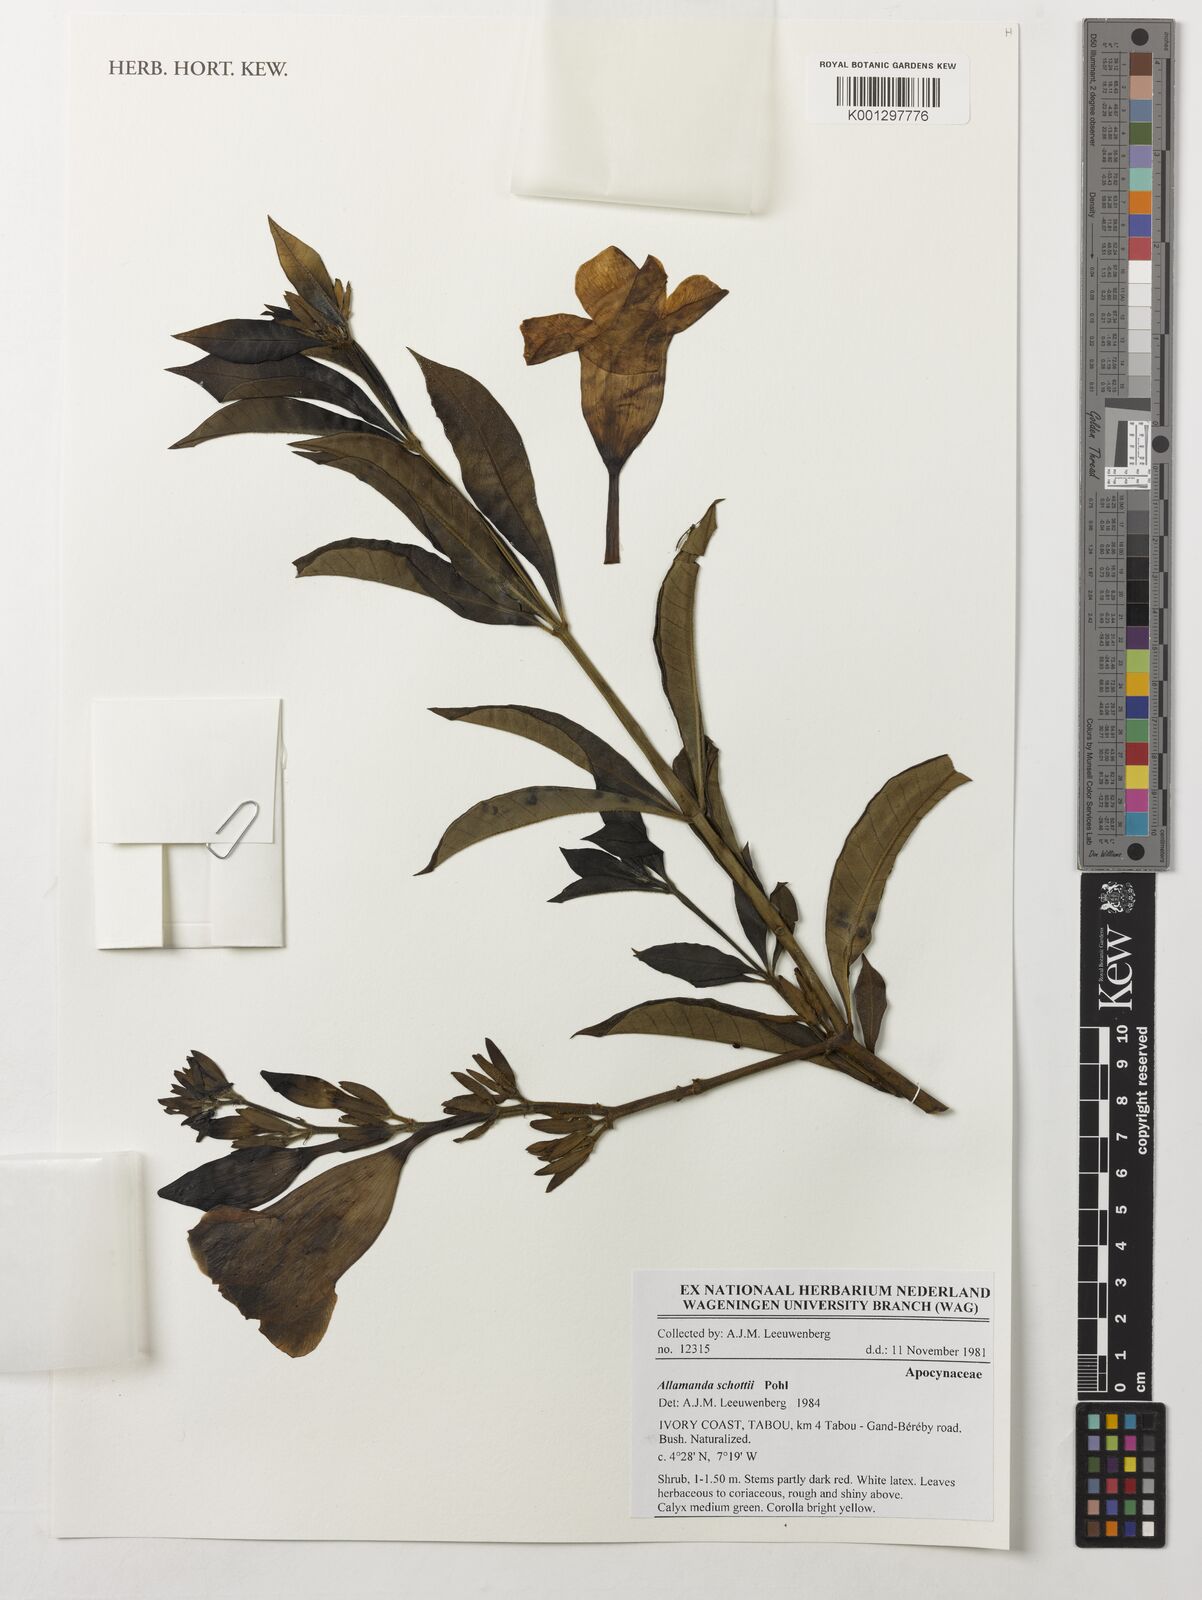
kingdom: Plantae
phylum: Tracheophyta
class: Magnoliopsida
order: Gentianales
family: Apocynaceae
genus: Allamanda
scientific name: Allamanda schottii
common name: Bush allamanda
